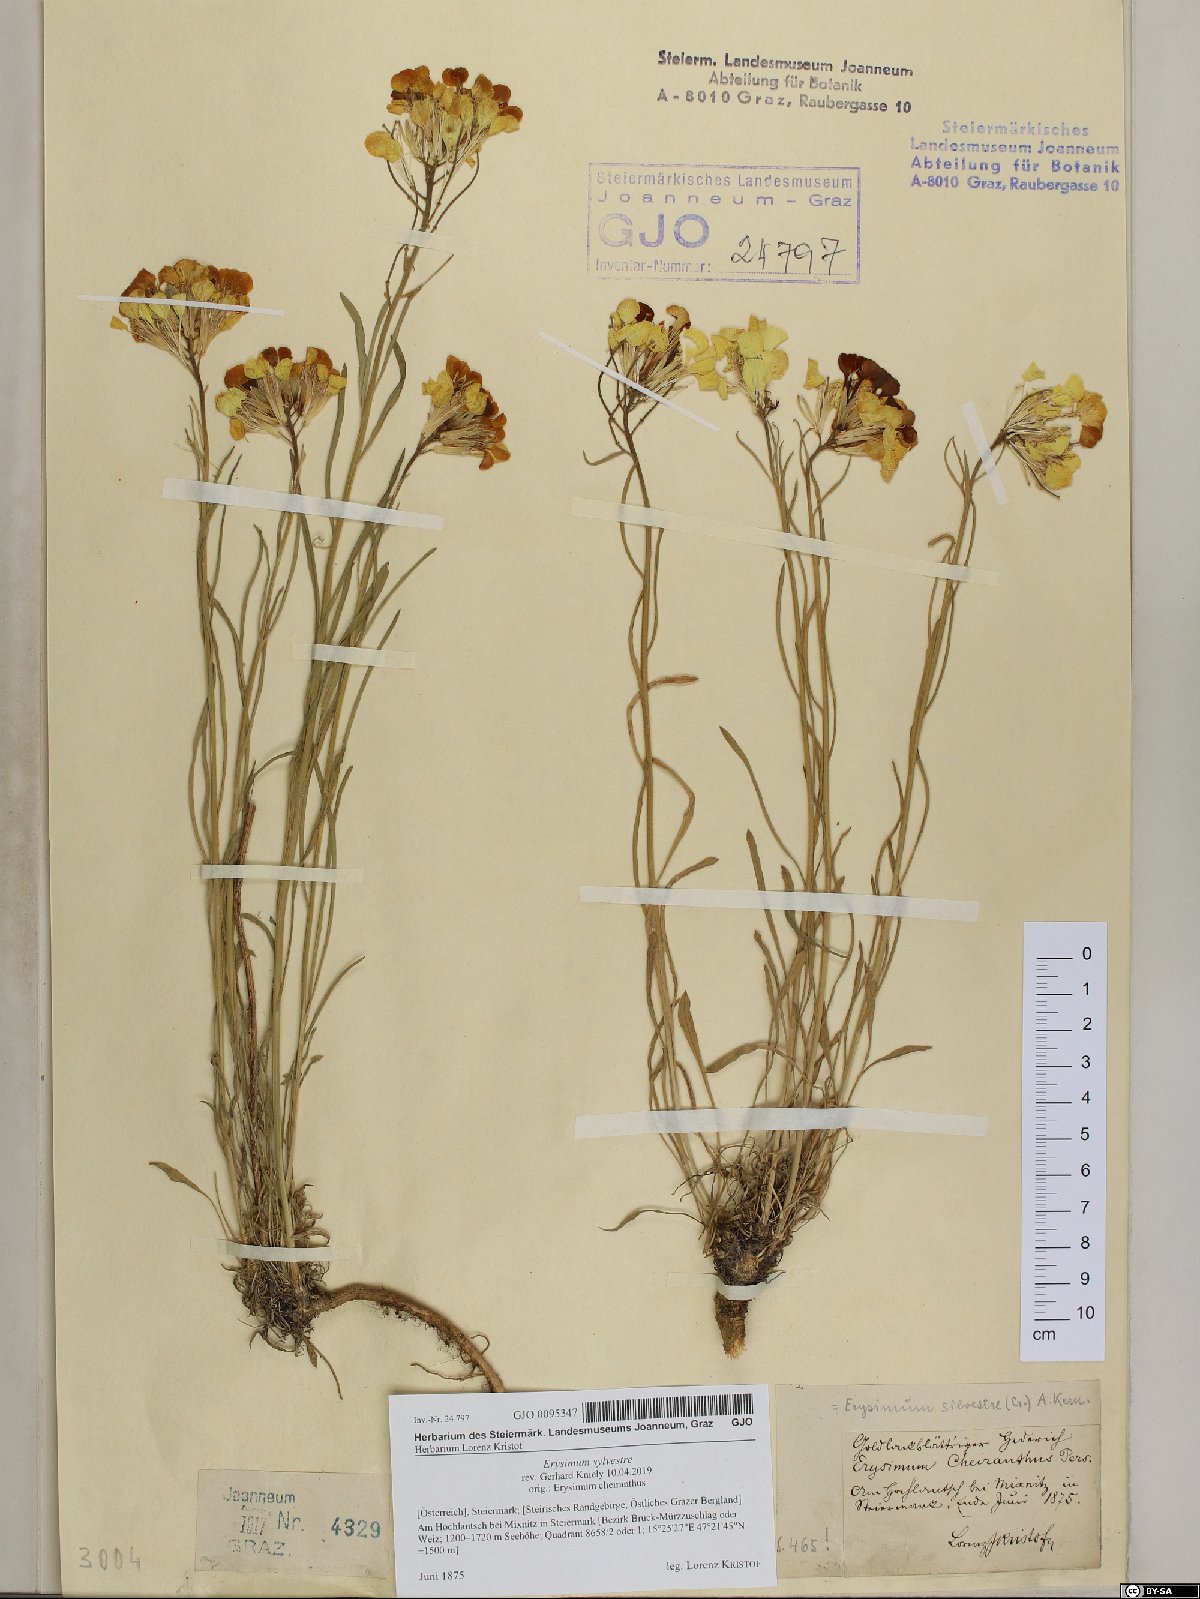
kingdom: Plantae
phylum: Tracheophyta
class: Magnoliopsida
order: Brassicales
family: Brassicaceae
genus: Erysimum
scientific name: Erysimum sylvestre
